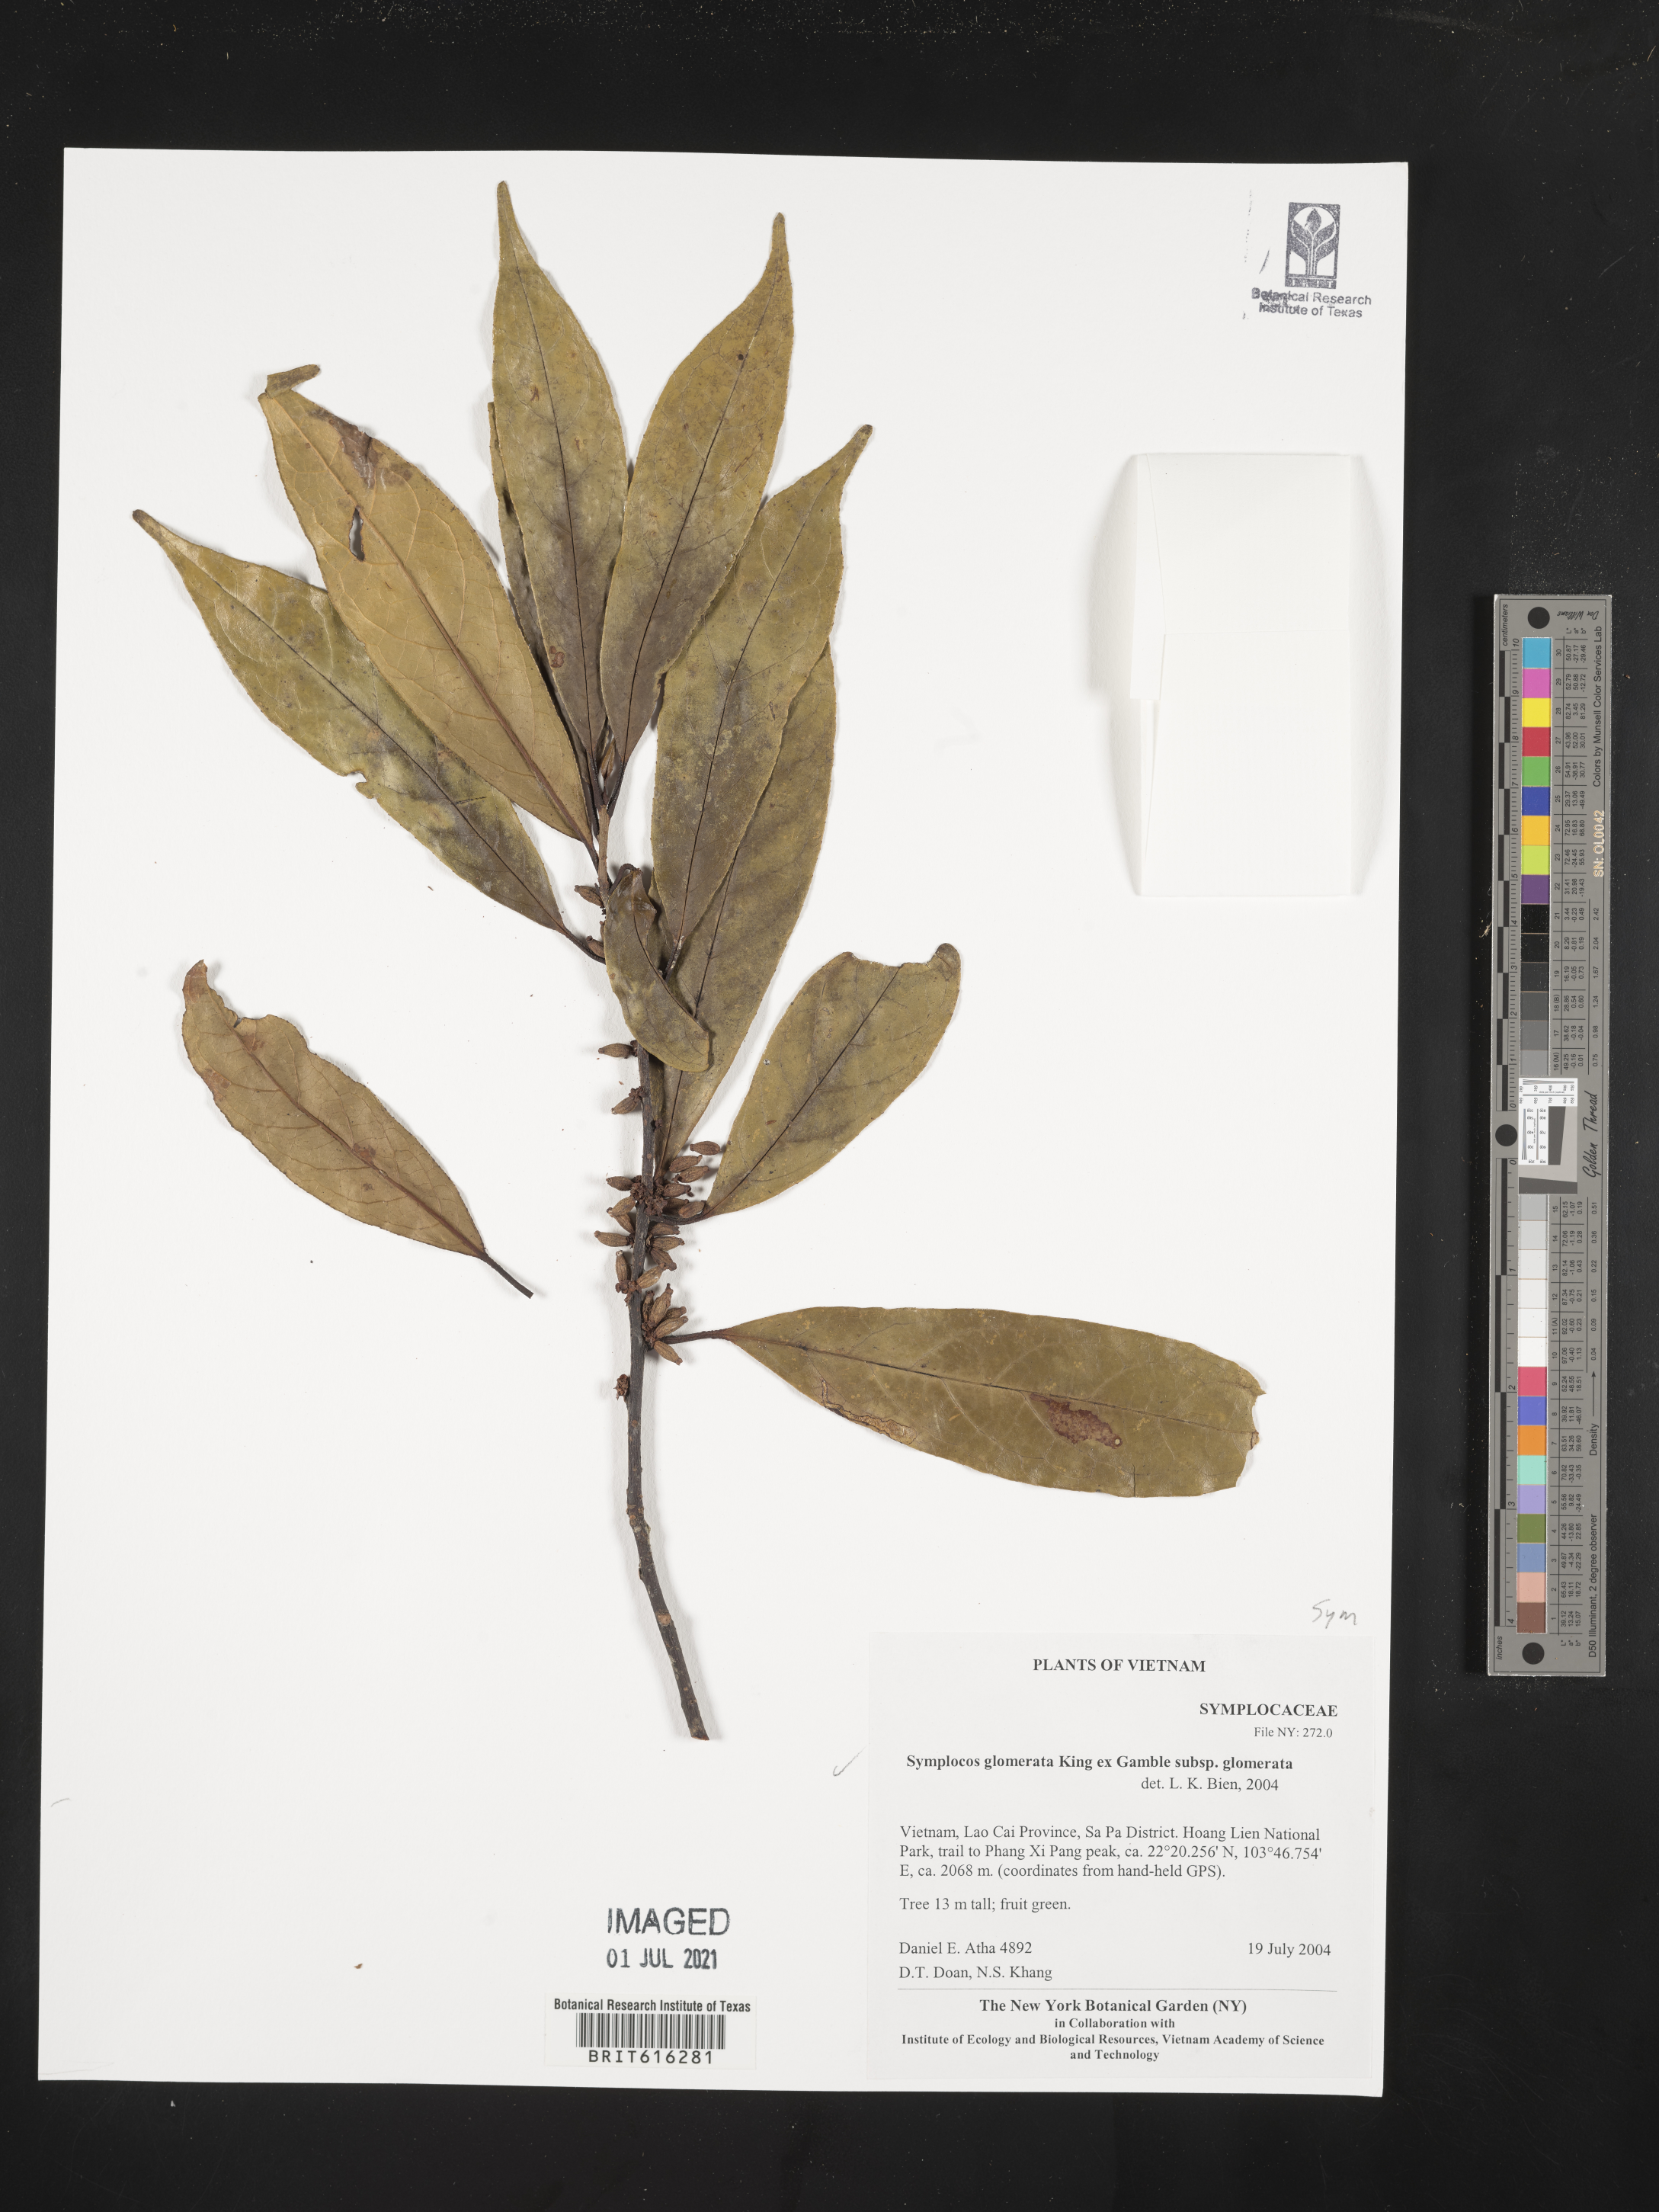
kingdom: Plantae
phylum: Tracheophyta
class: Magnoliopsida
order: Ericales
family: Symplocaceae
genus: Symplocos
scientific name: Symplocos glomerata
